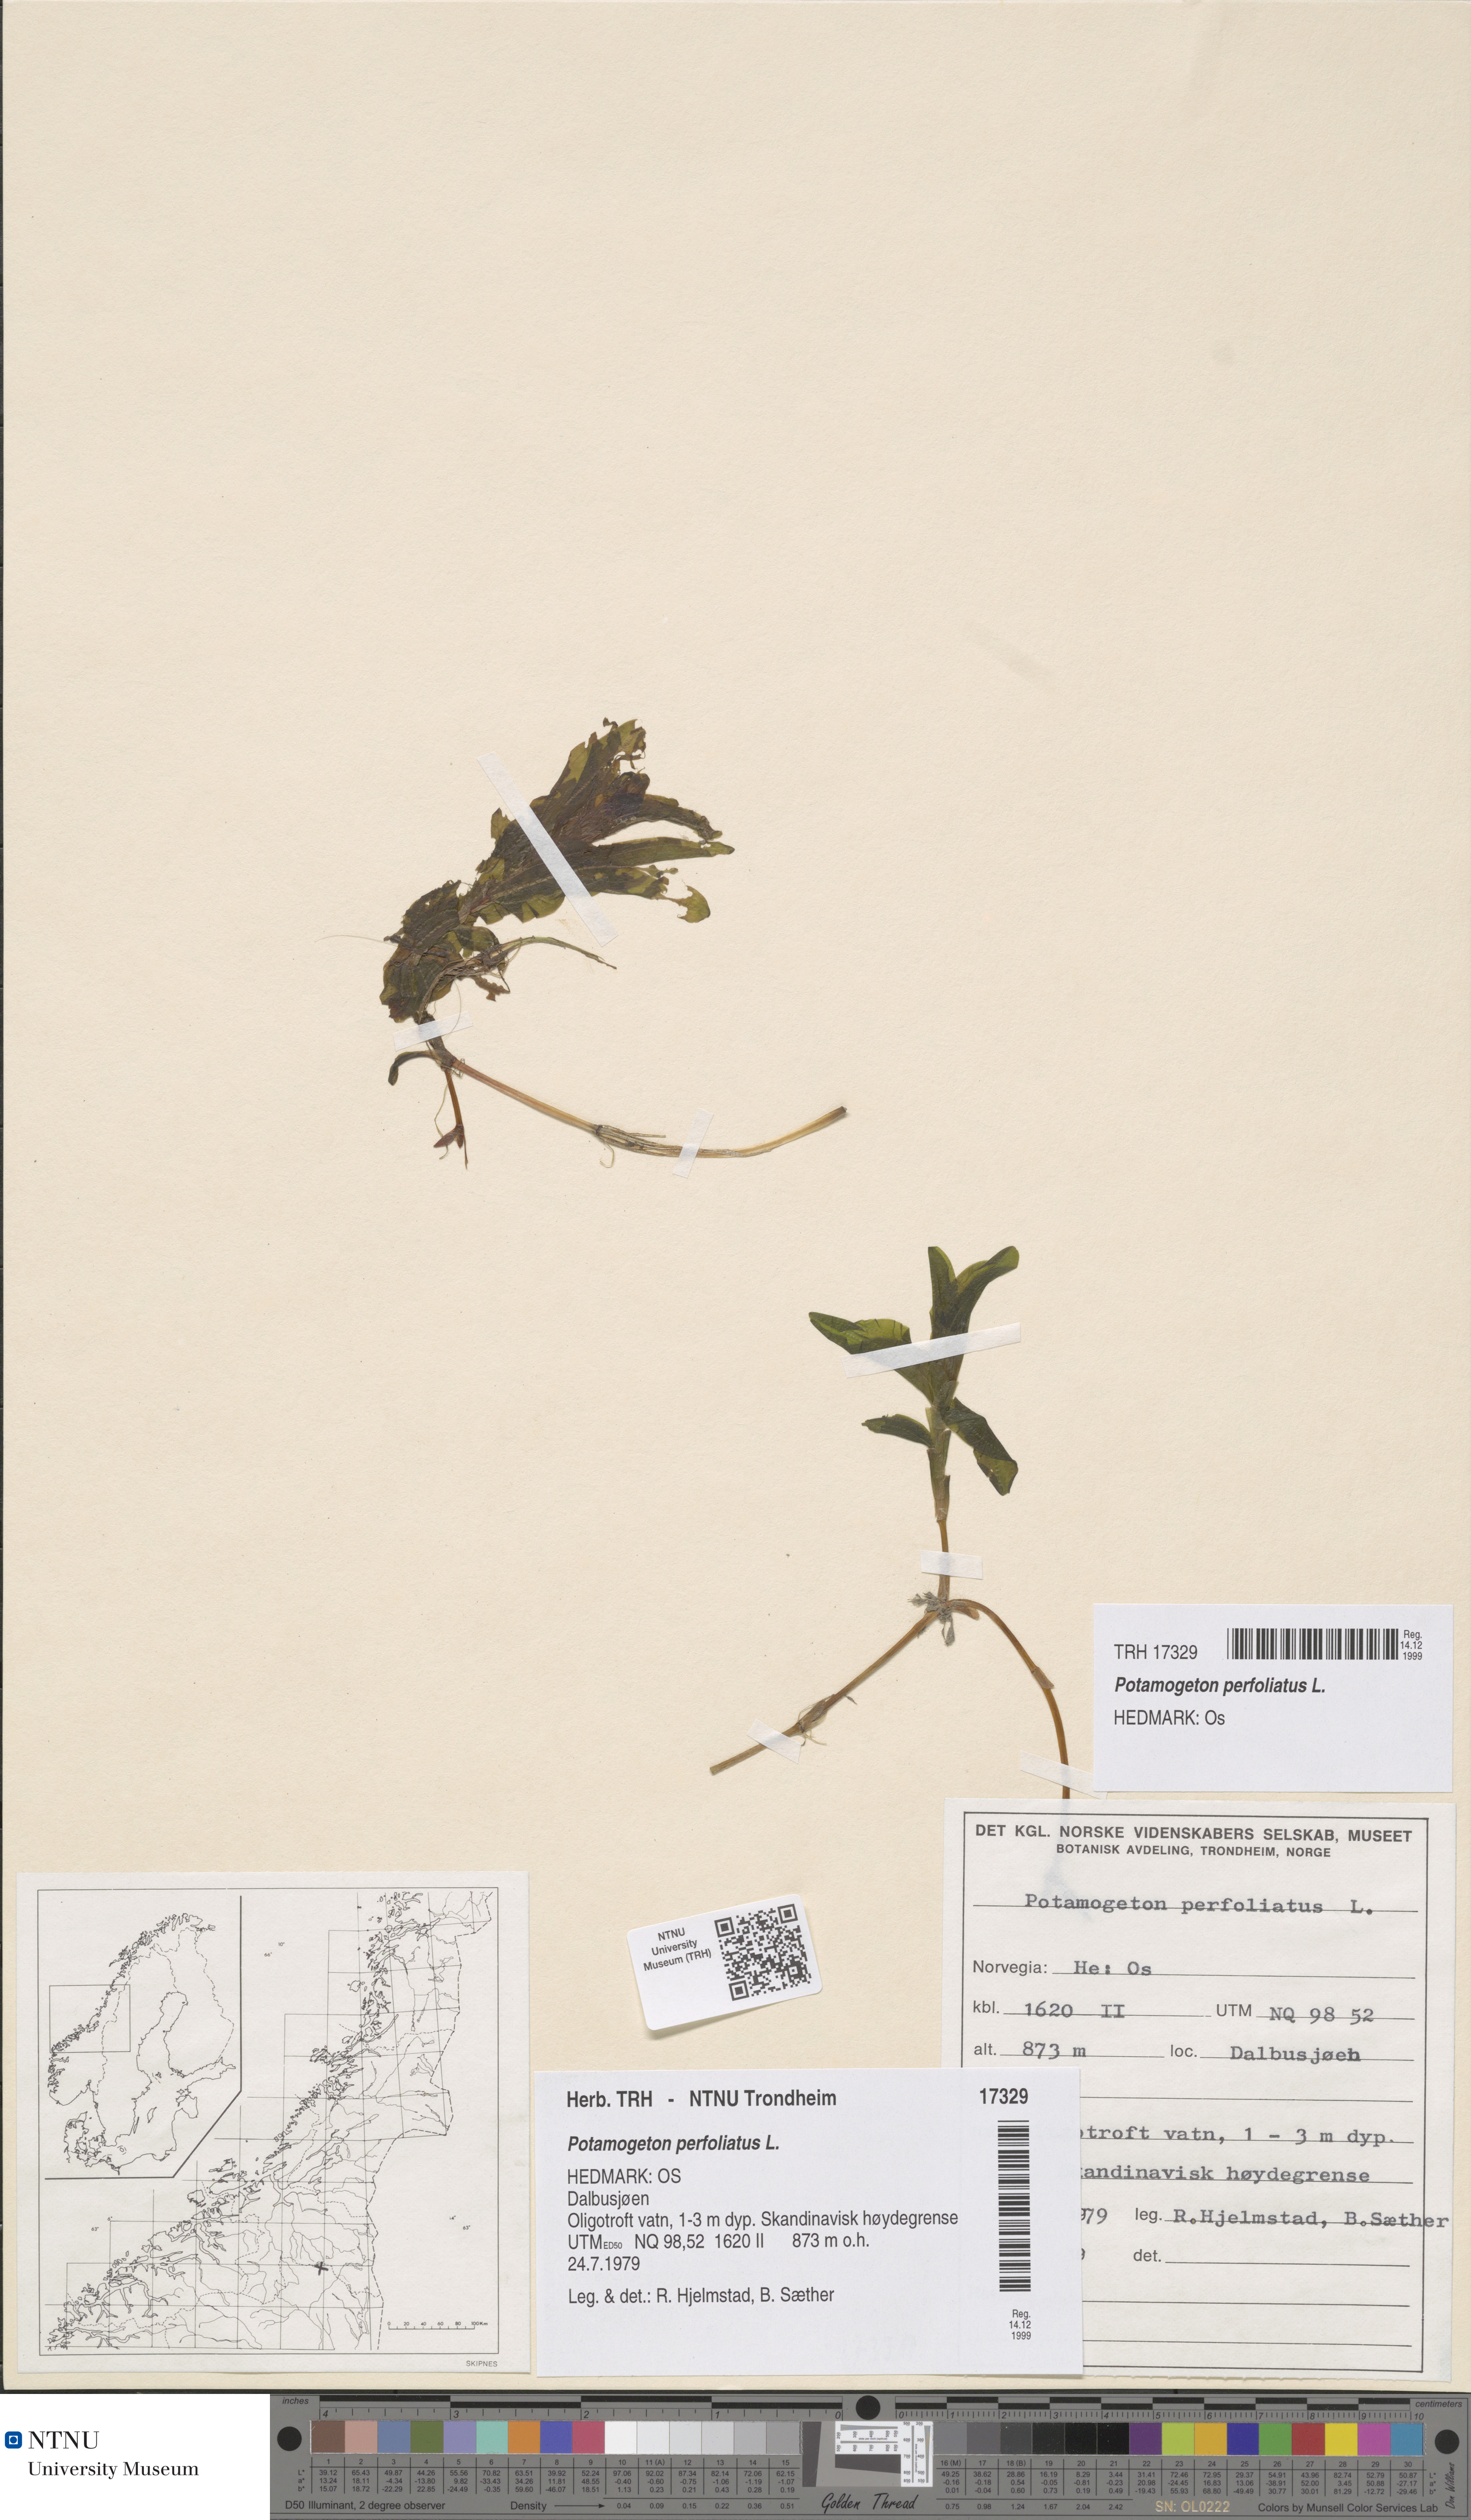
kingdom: Plantae
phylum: Tracheophyta
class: Liliopsida
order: Alismatales
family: Potamogetonaceae
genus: Potamogeton
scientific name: Potamogeton perfoliatus
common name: Perfoliate pondweed
